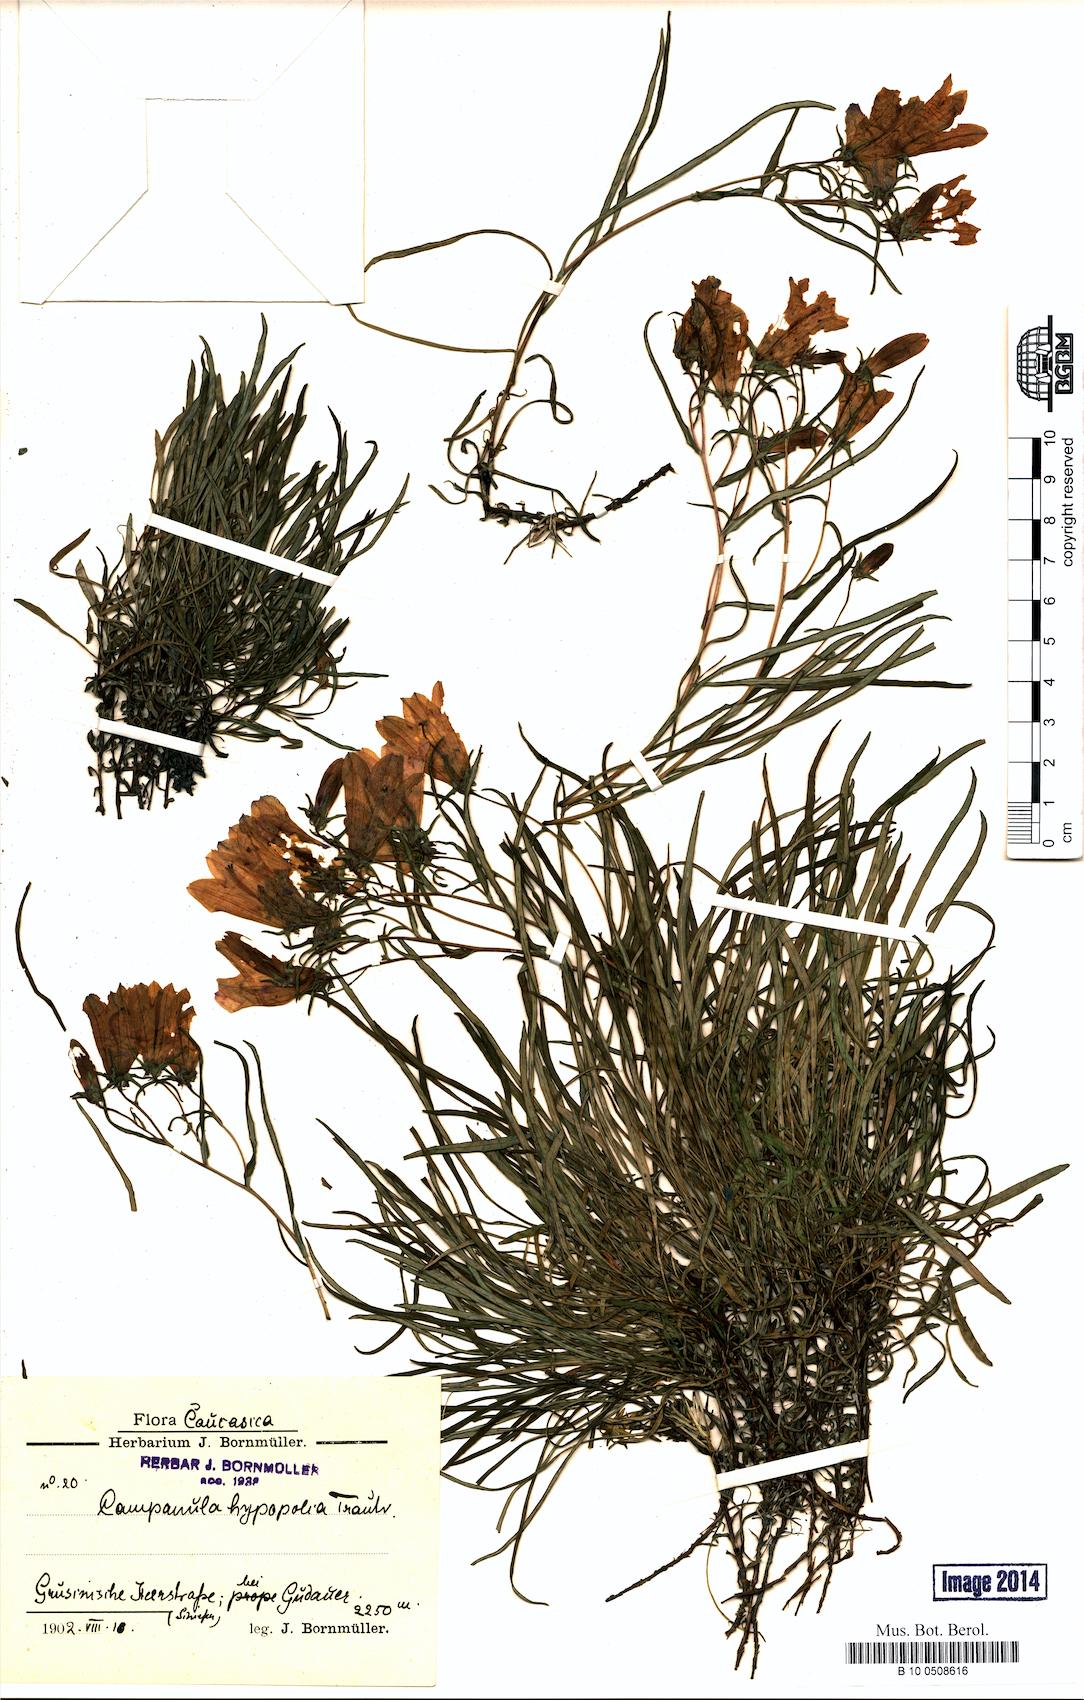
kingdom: Plantae
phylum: Tracheophyta
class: Magnoliopsida
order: Asterales
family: Campanulaceae
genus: Campanula
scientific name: Campanula hypopolia
